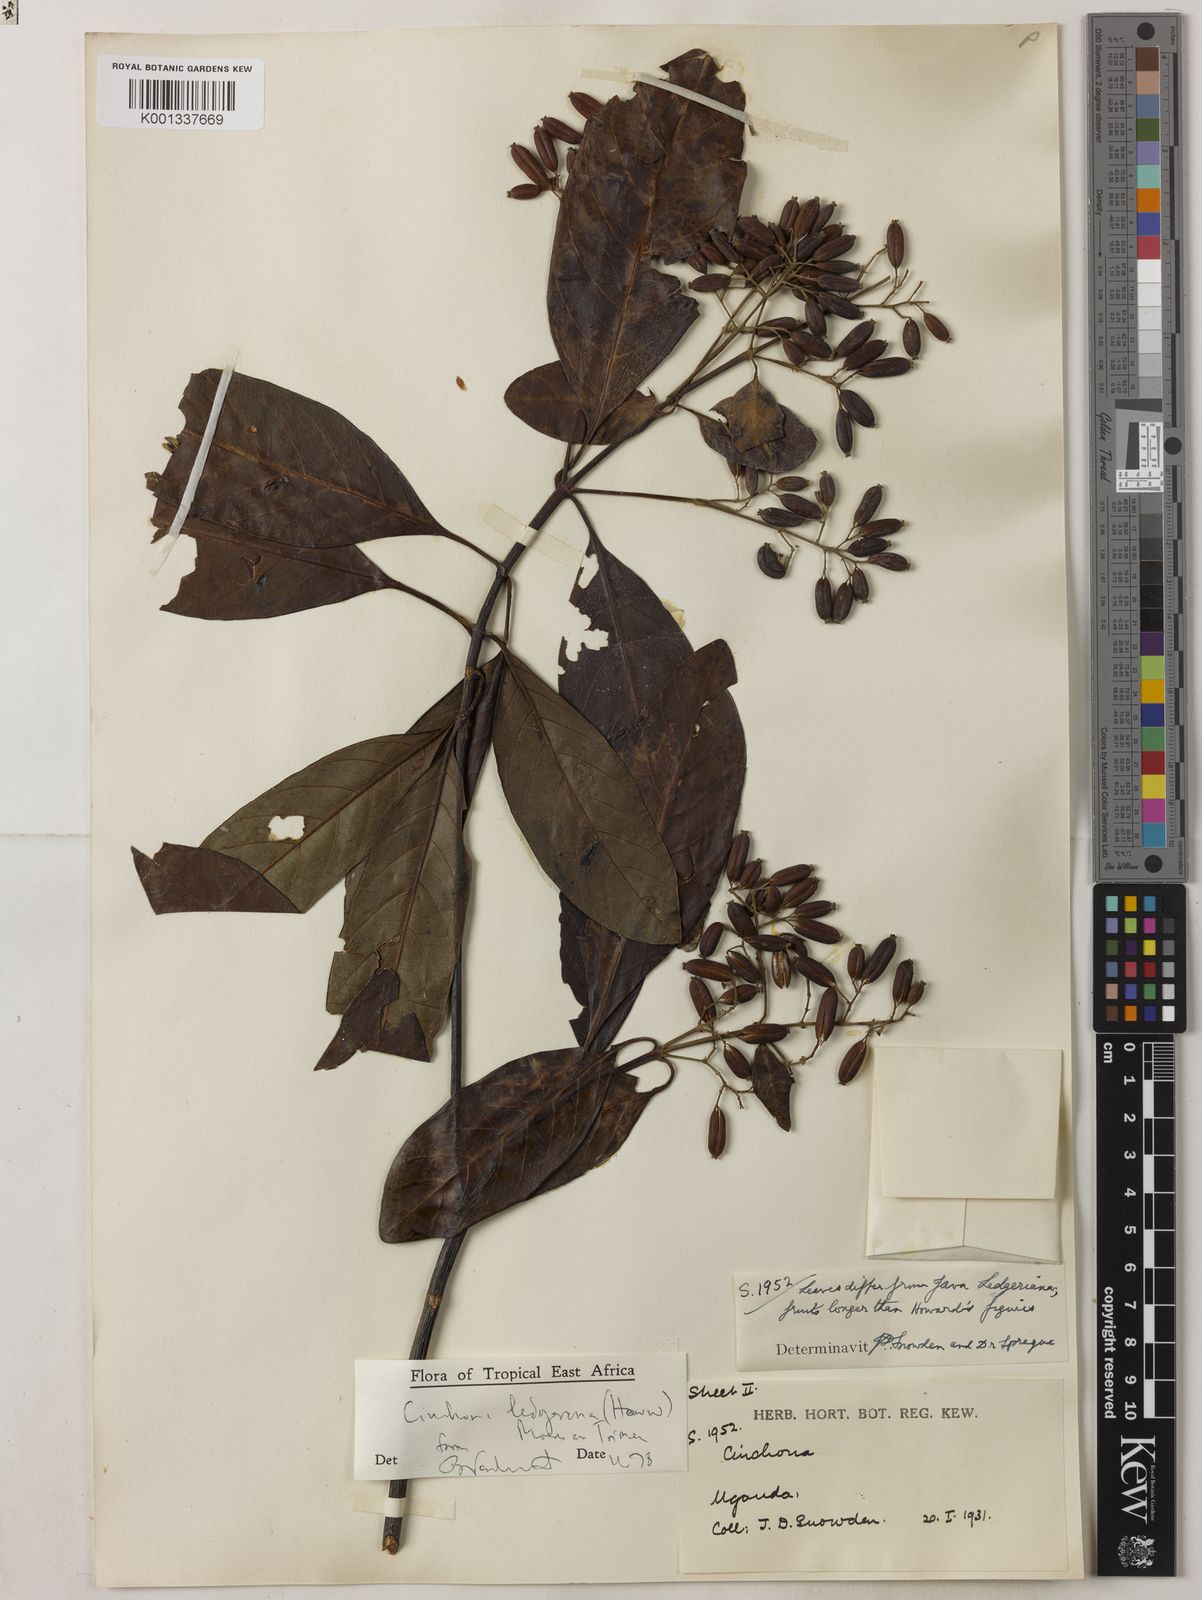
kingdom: Plantae
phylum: Tracheophyta
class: Magnoliopsida
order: Gentianales
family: Rubiaceae
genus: Cinchona
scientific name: Cinchona calisaya
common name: Ledgerbark
